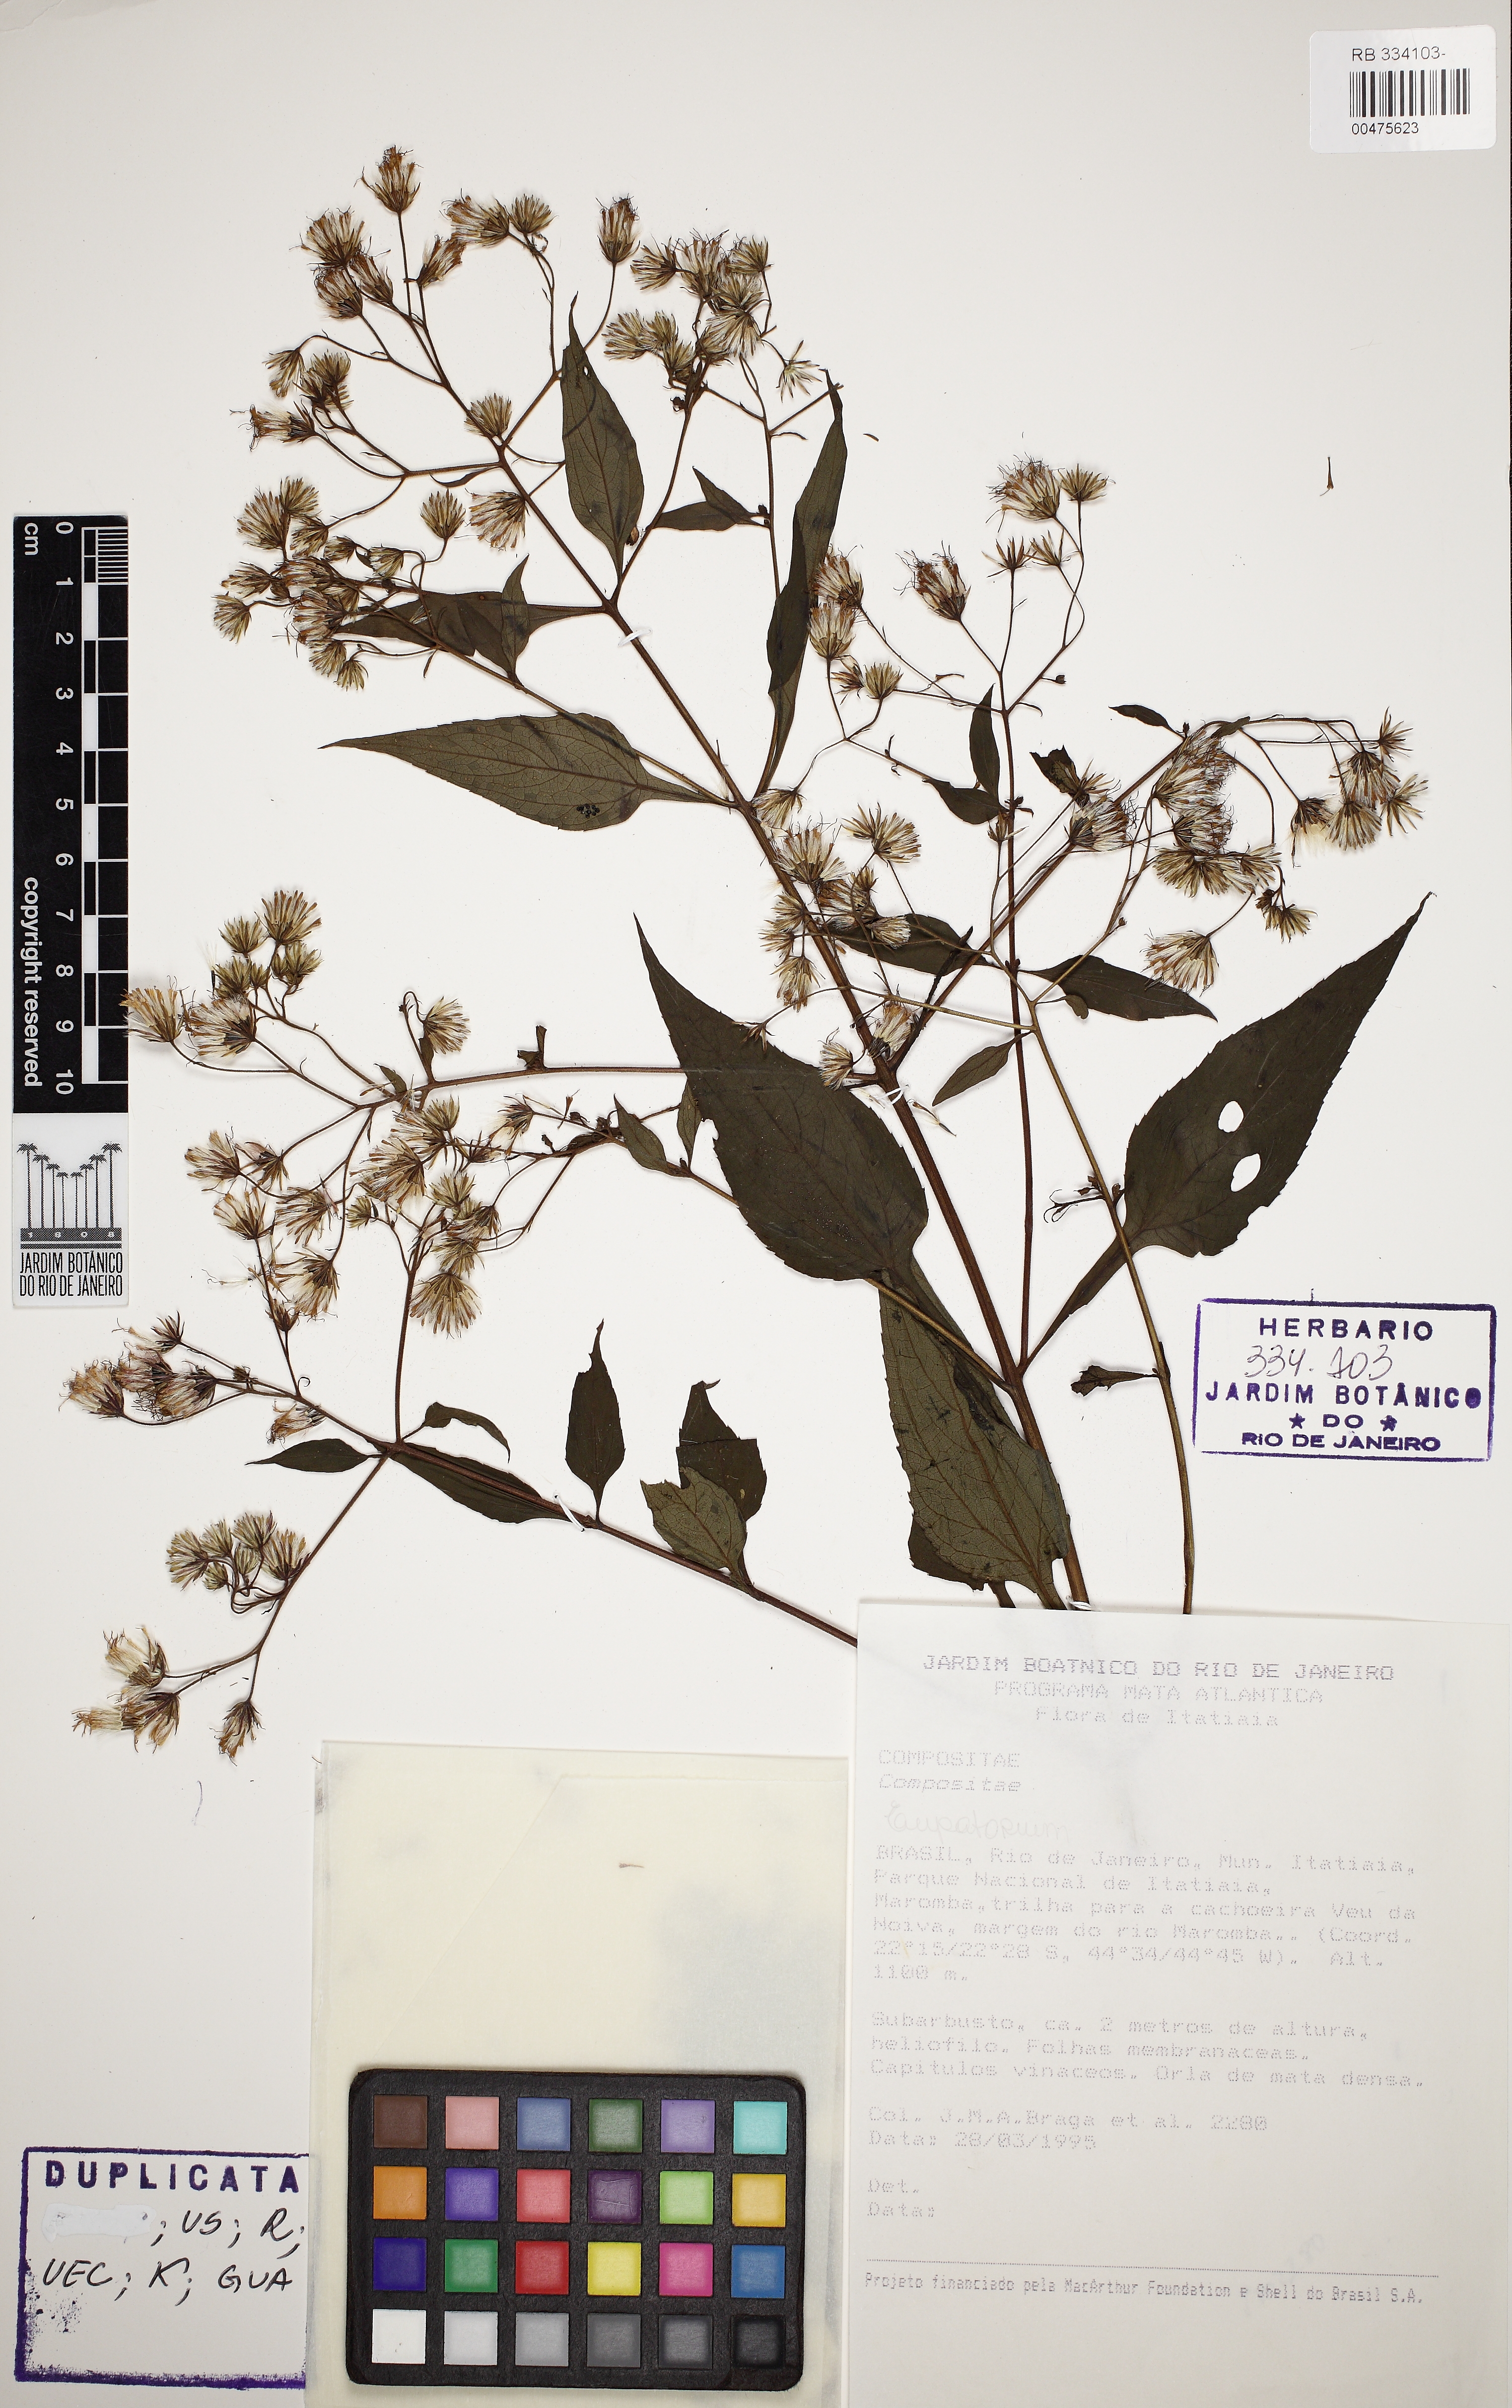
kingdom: Plantae
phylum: Tracheophyta
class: Magnoliopsida
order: Asterales
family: Asteraceae
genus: Eupatorium
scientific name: Eupatorium
